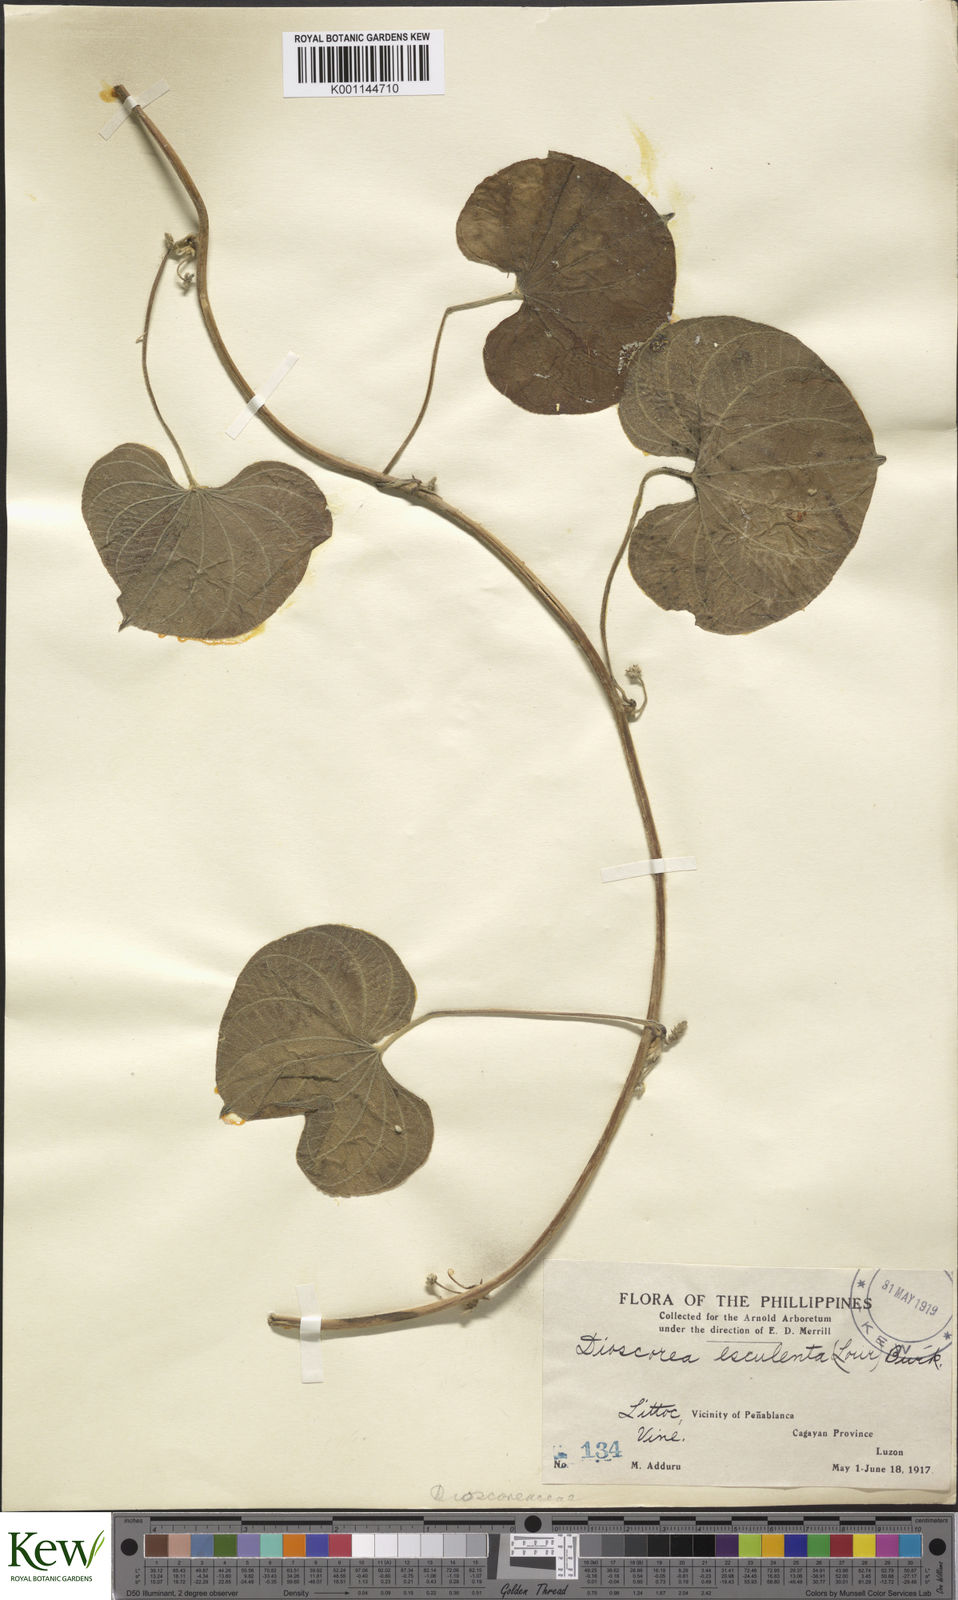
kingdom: Plantae
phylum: Tracheophyta
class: Liliopsida
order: Dioscoreales
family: Dioscoreaceae
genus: Dioscorea
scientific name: Dioscorea esculenta
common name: Chinese yam
